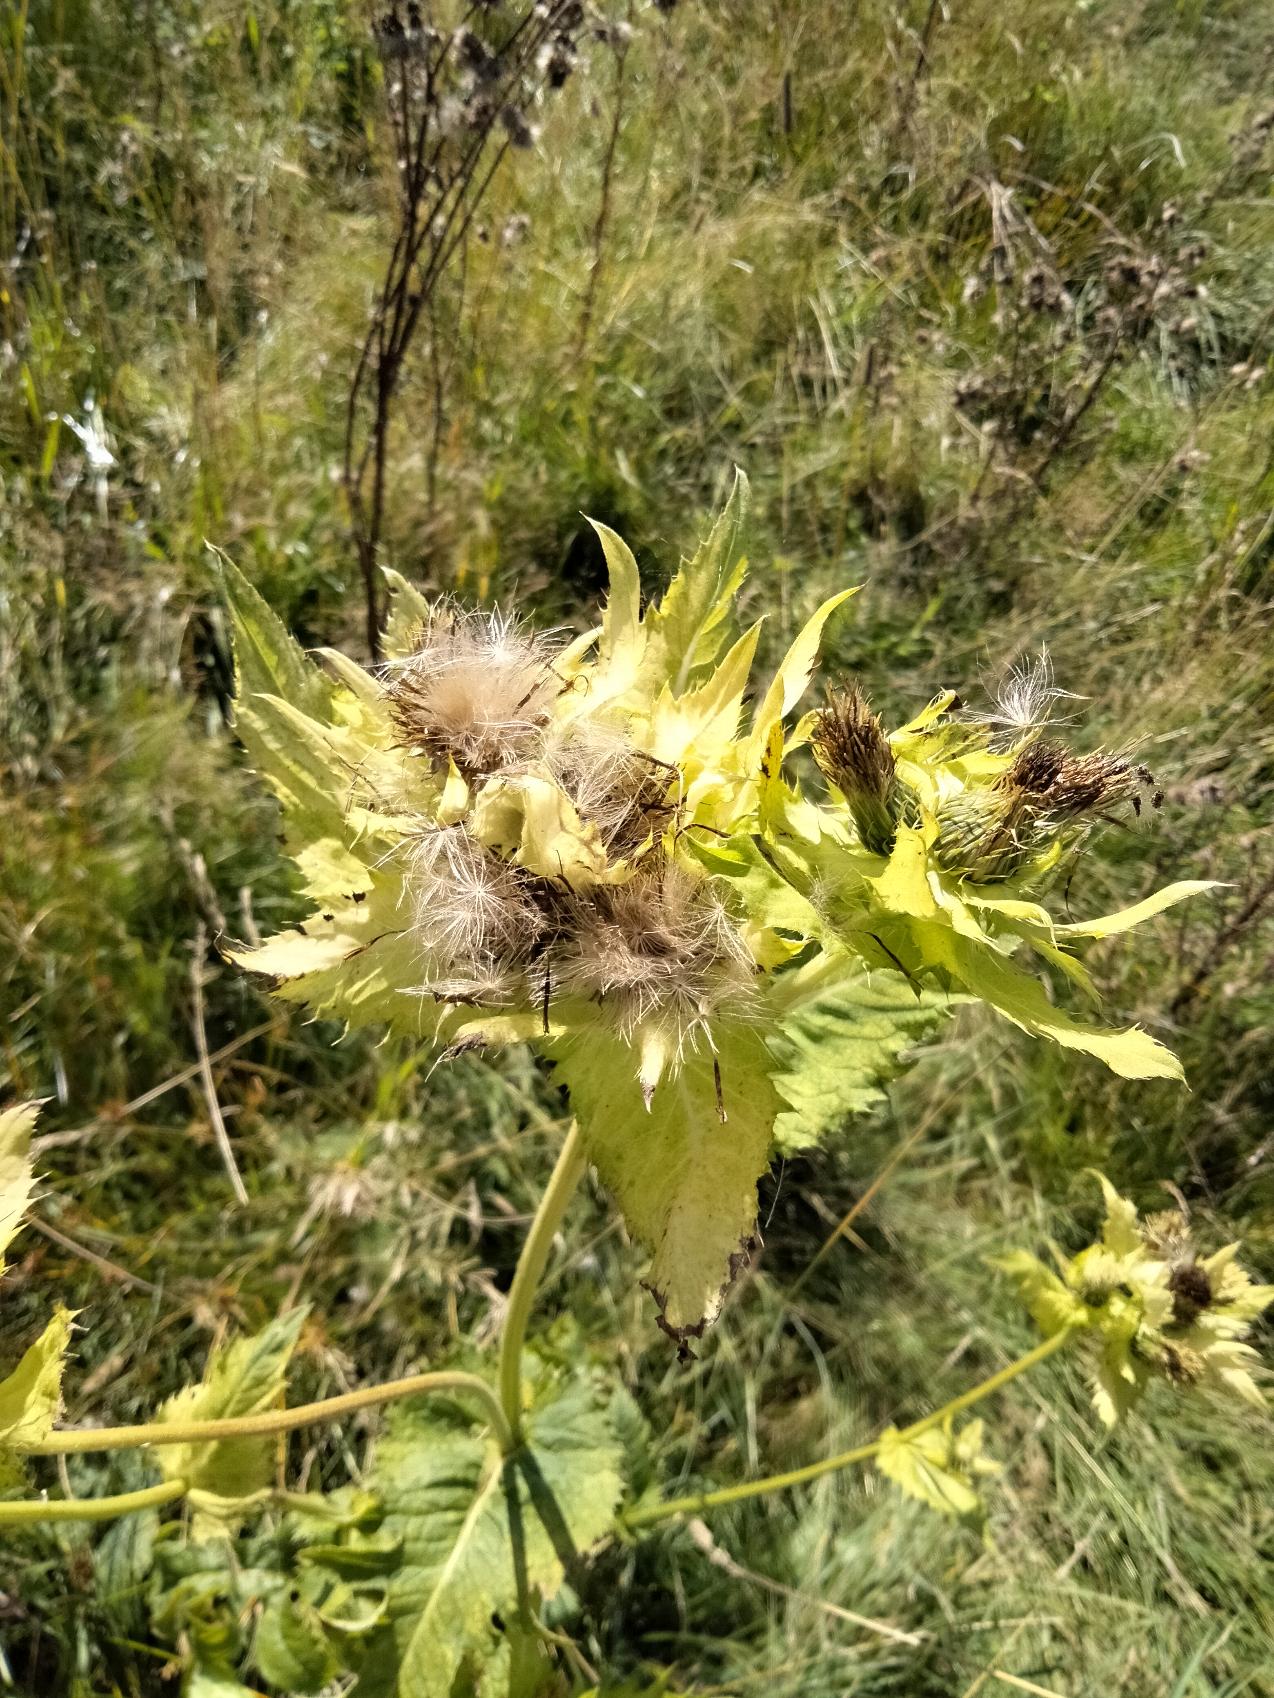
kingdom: Plantae
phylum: Tracheophyta
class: Magnoliopsida
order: Asterales
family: Asteraceae
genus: Cirsium
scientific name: Cirsium oleraceum
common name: Kål-tidsel
